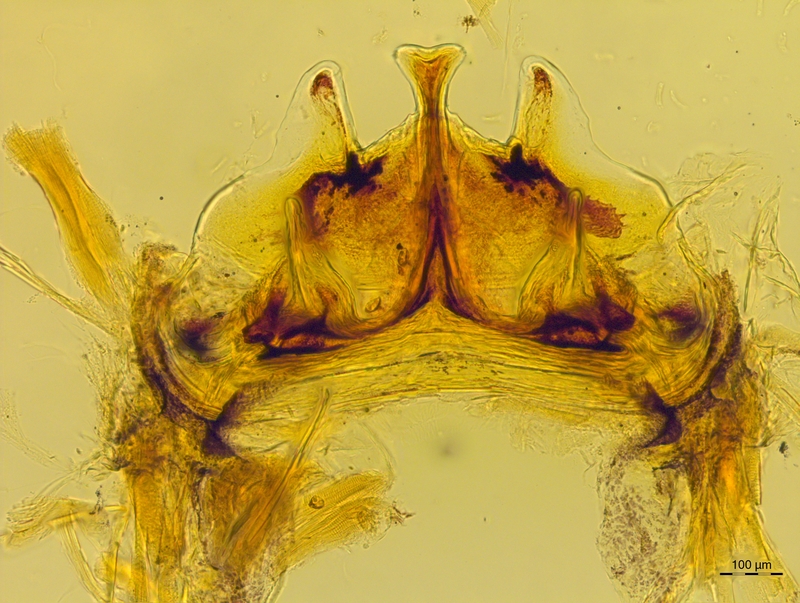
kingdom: Animalia
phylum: Arthropoda
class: Diplopoda
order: Chordeumatida
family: Craspedosomatidae
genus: Craspedosoma
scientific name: Craspedosoma rawlinsii
